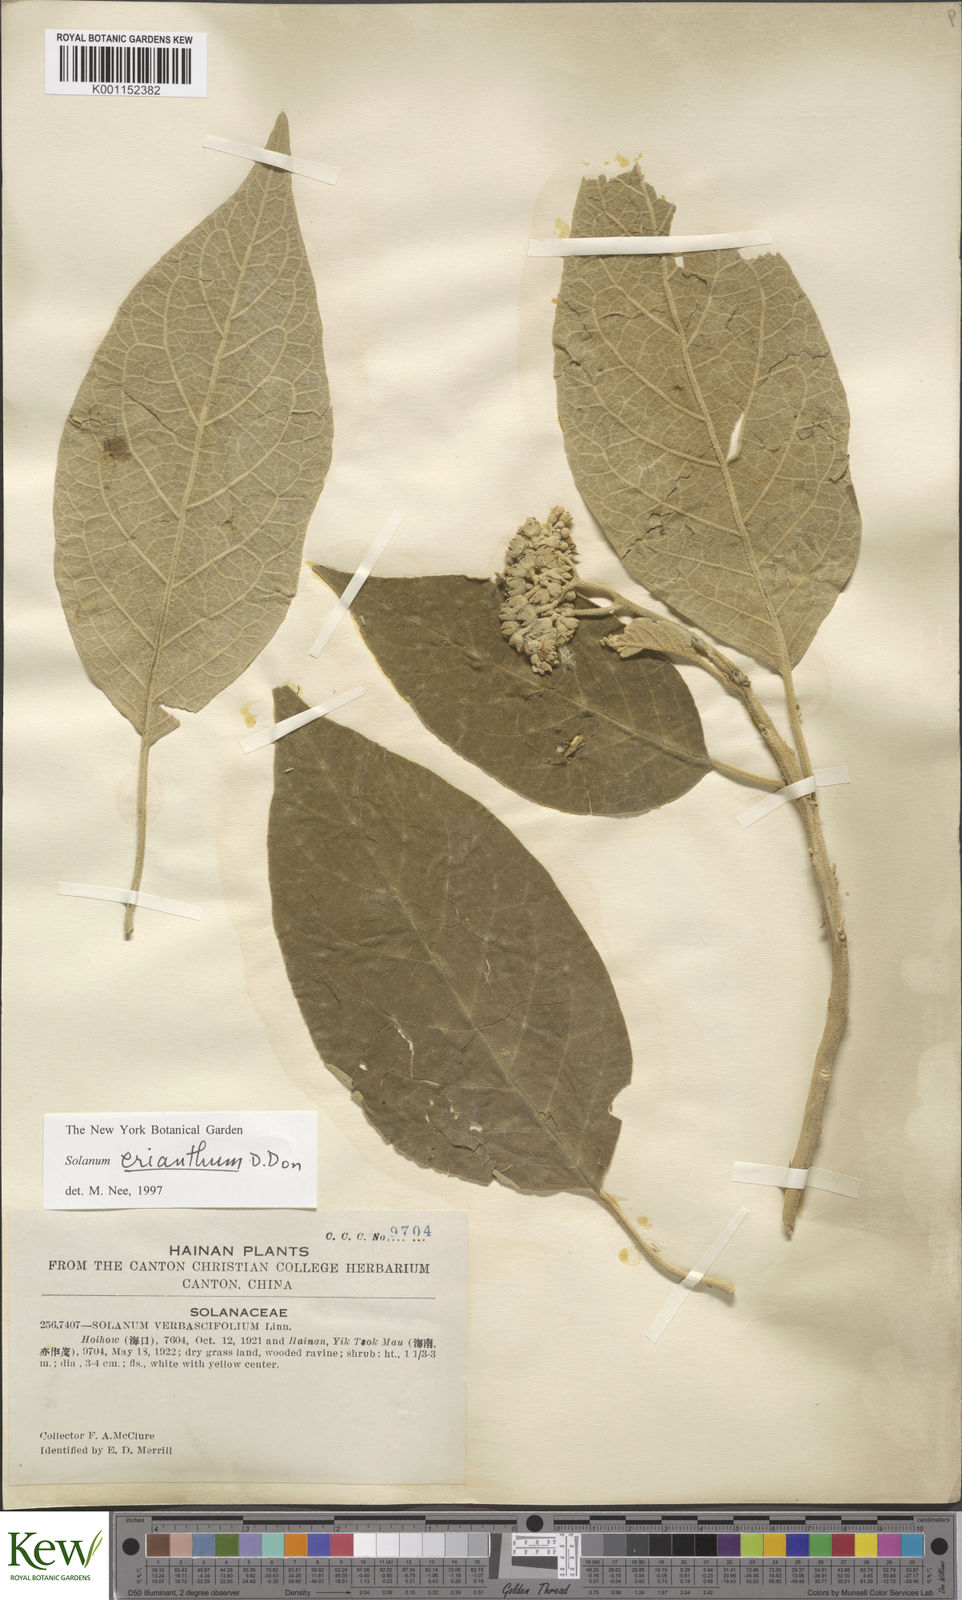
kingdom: Plantae
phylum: Tracheophyta
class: Magnoliopsida
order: Solanales
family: Solanaceae
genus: Solanum
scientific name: Solanum donianum
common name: Mullein nightshade
